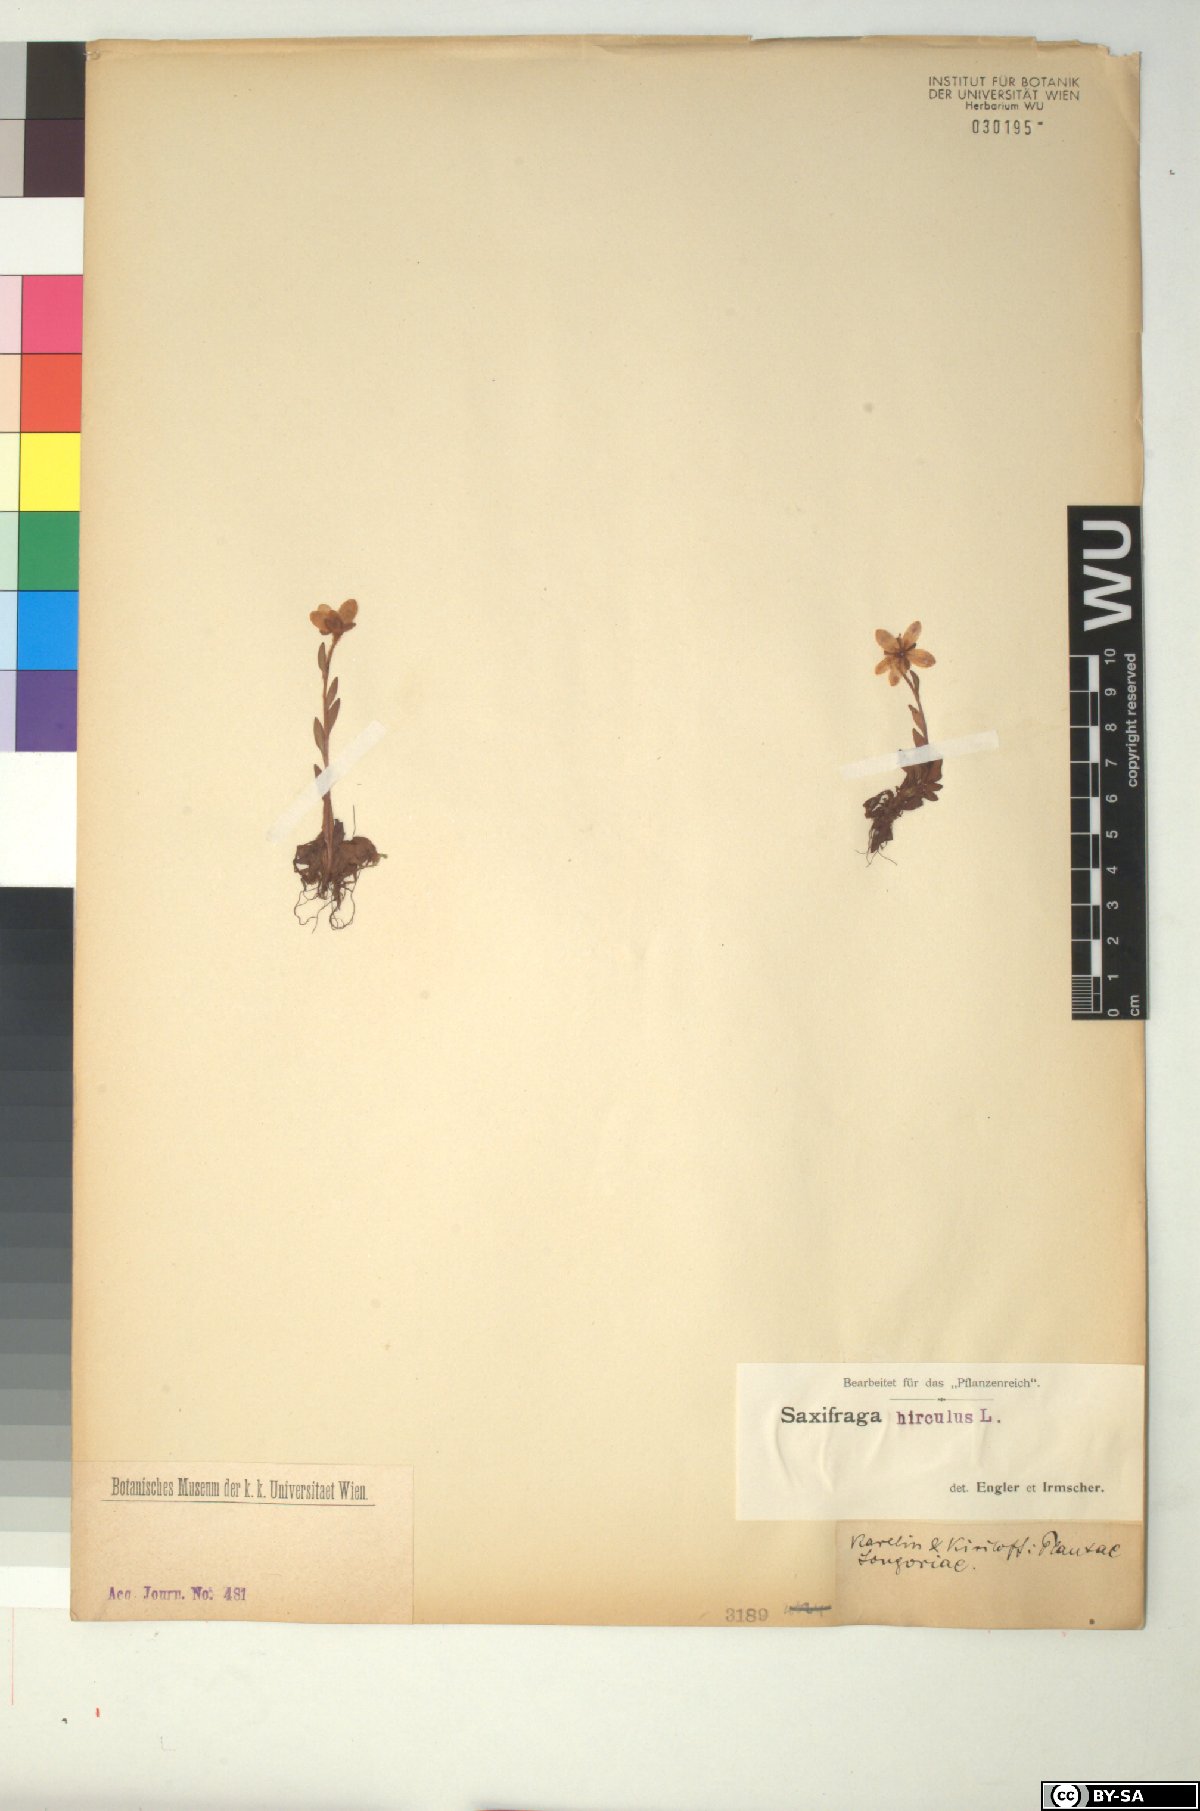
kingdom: Plantae
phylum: Tracheophyta
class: Magnoliopsida
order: Saxifragales
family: Saxifragaceae
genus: Saxifraga
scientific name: Saxifraga hirculus
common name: Yellow marsh saxifrage
